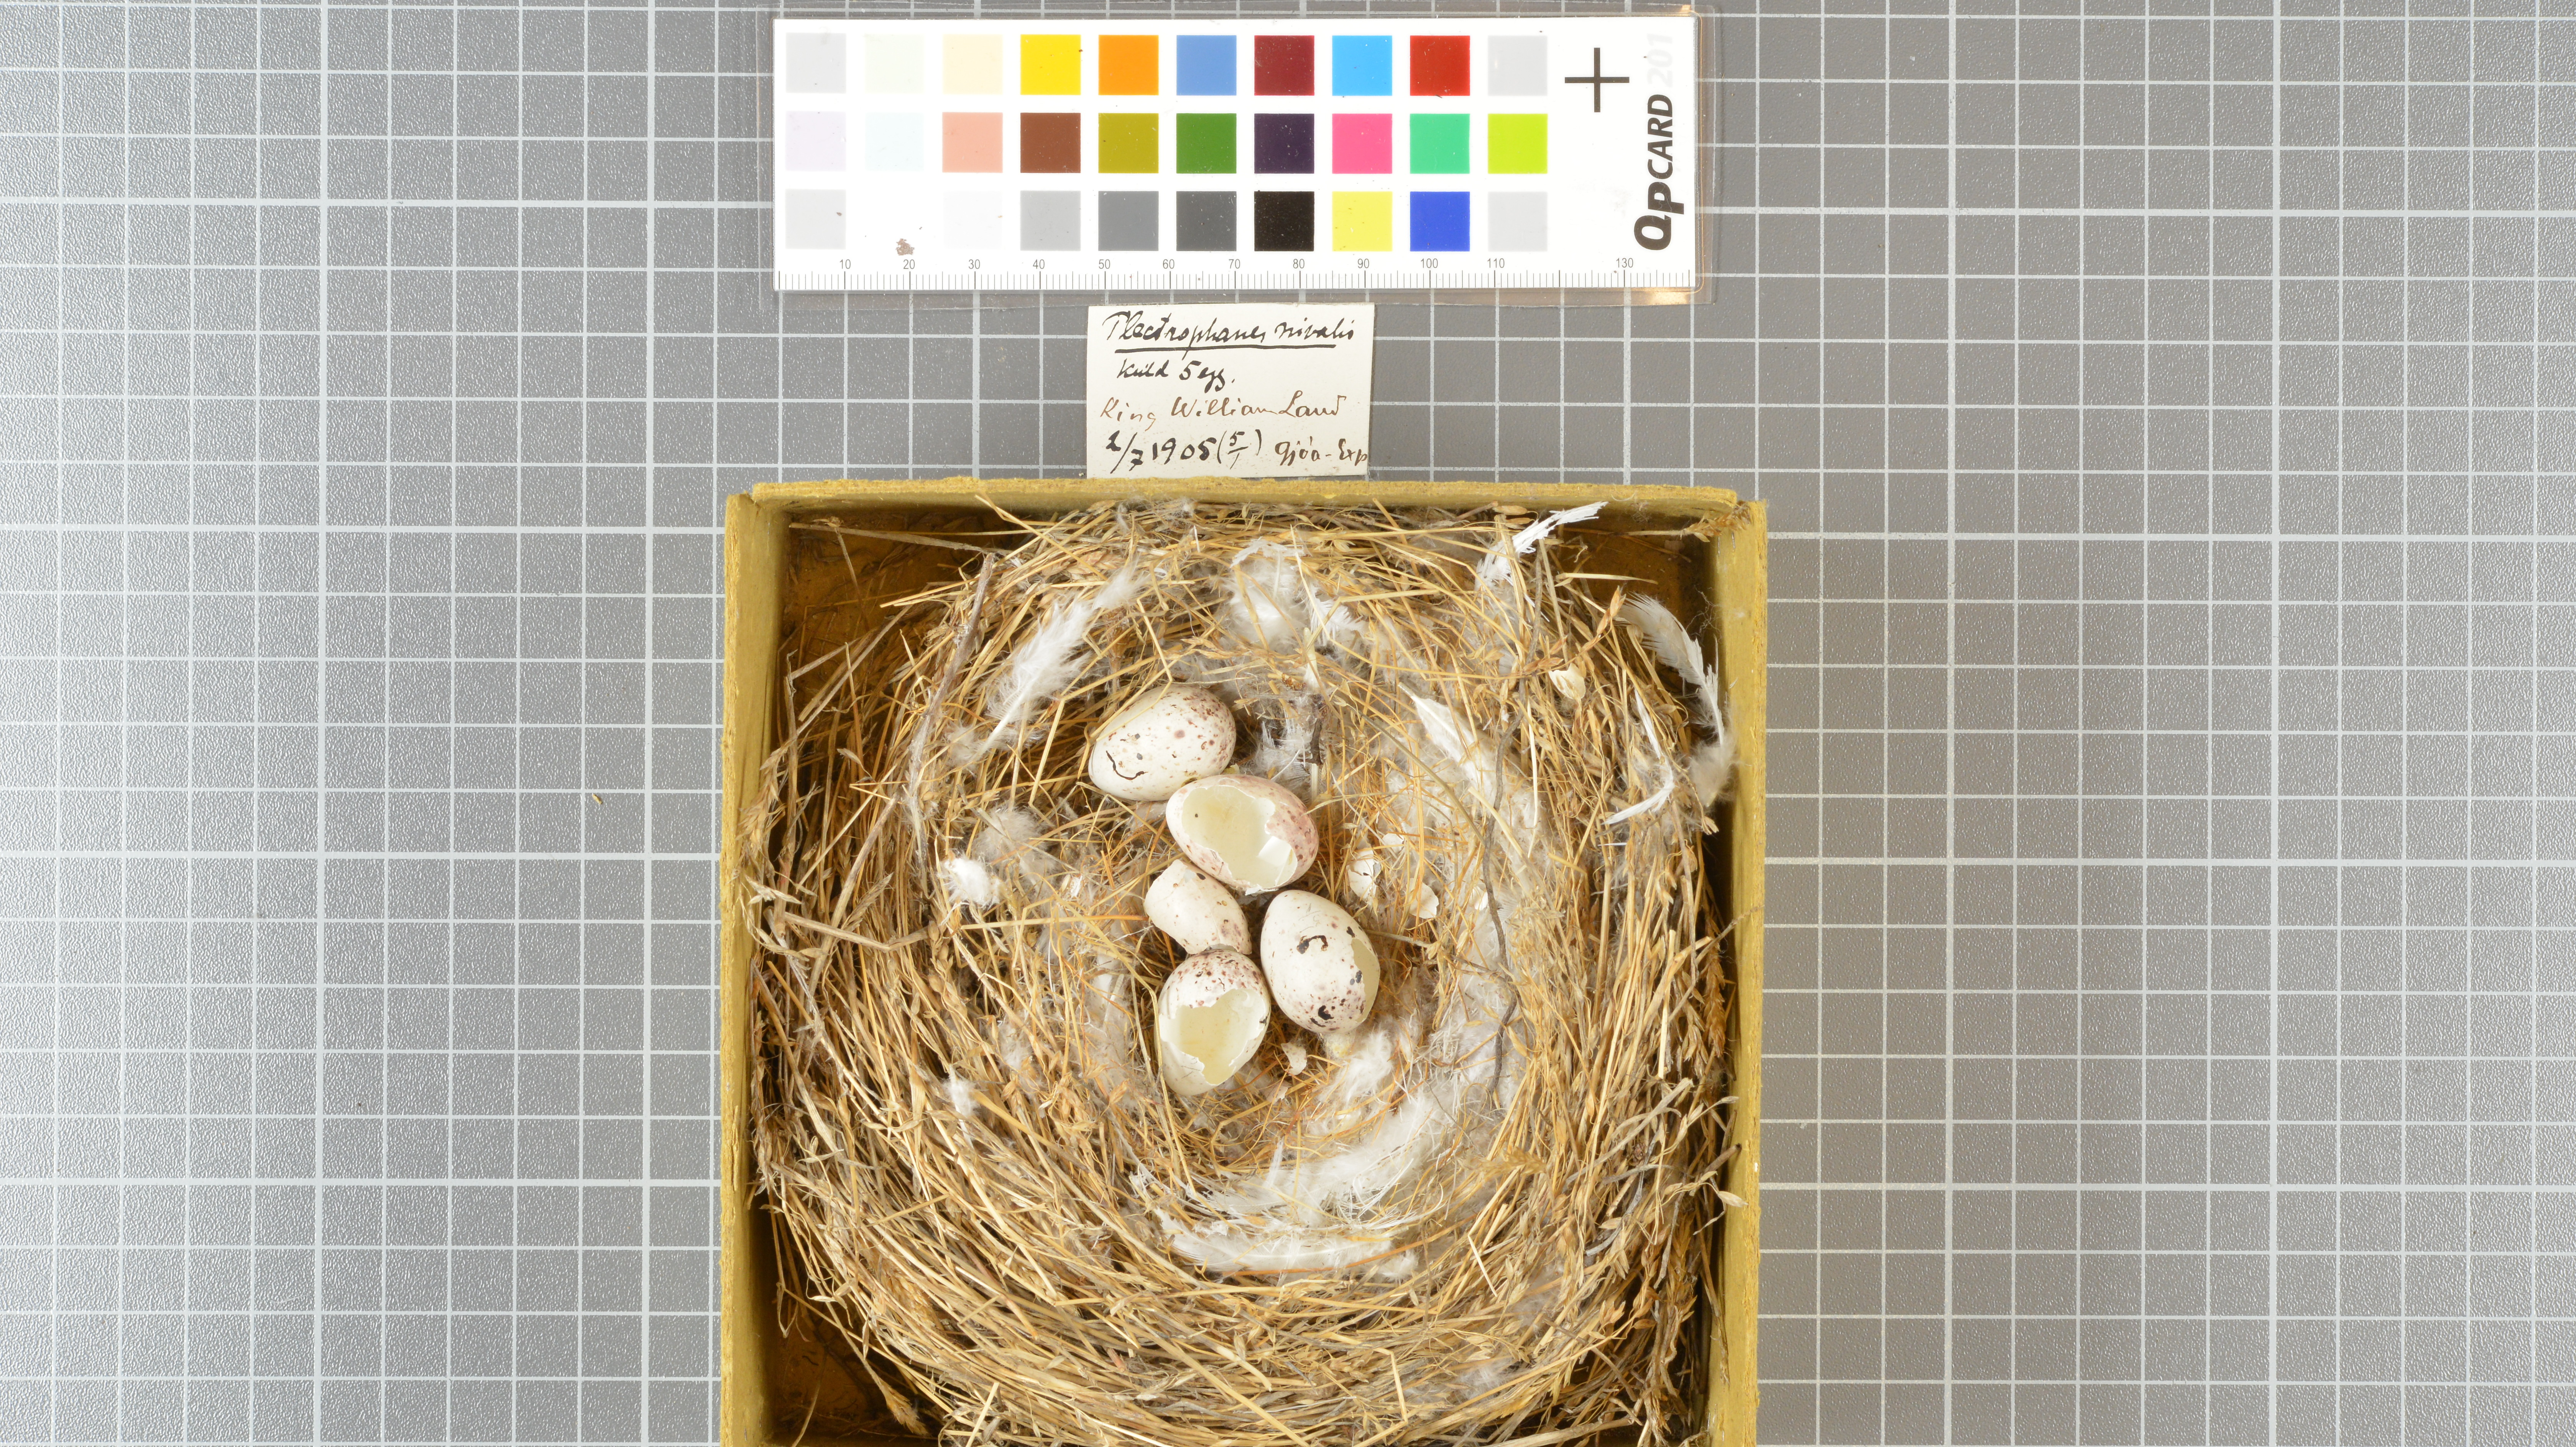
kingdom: Animalia
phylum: Chordata
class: Aves
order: Passeriformes
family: Calcariidae
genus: Plectrophenax
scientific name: Plectrophenax nivalis
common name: Snow bunting
